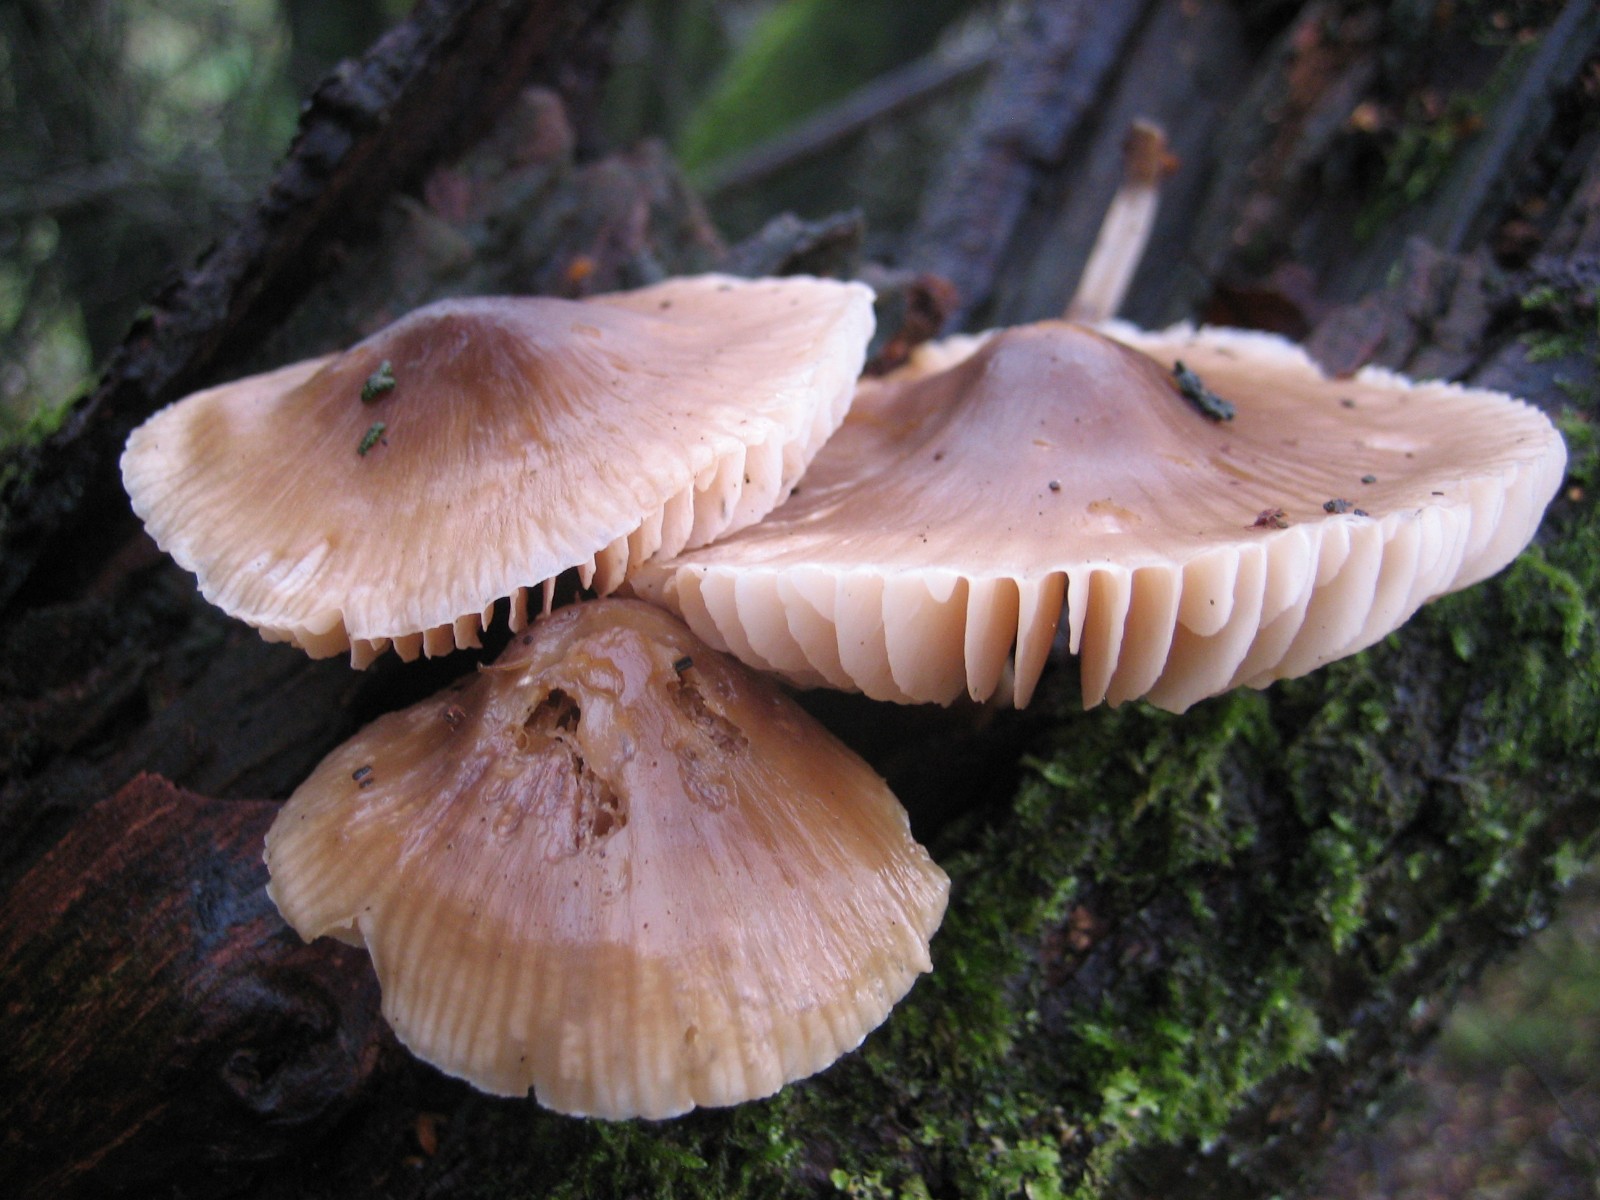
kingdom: Fungi
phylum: Basidiomycota
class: Agaricomycetes
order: Agaricales
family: Mycenaceae
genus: Mycena
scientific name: Mycena galericulata
